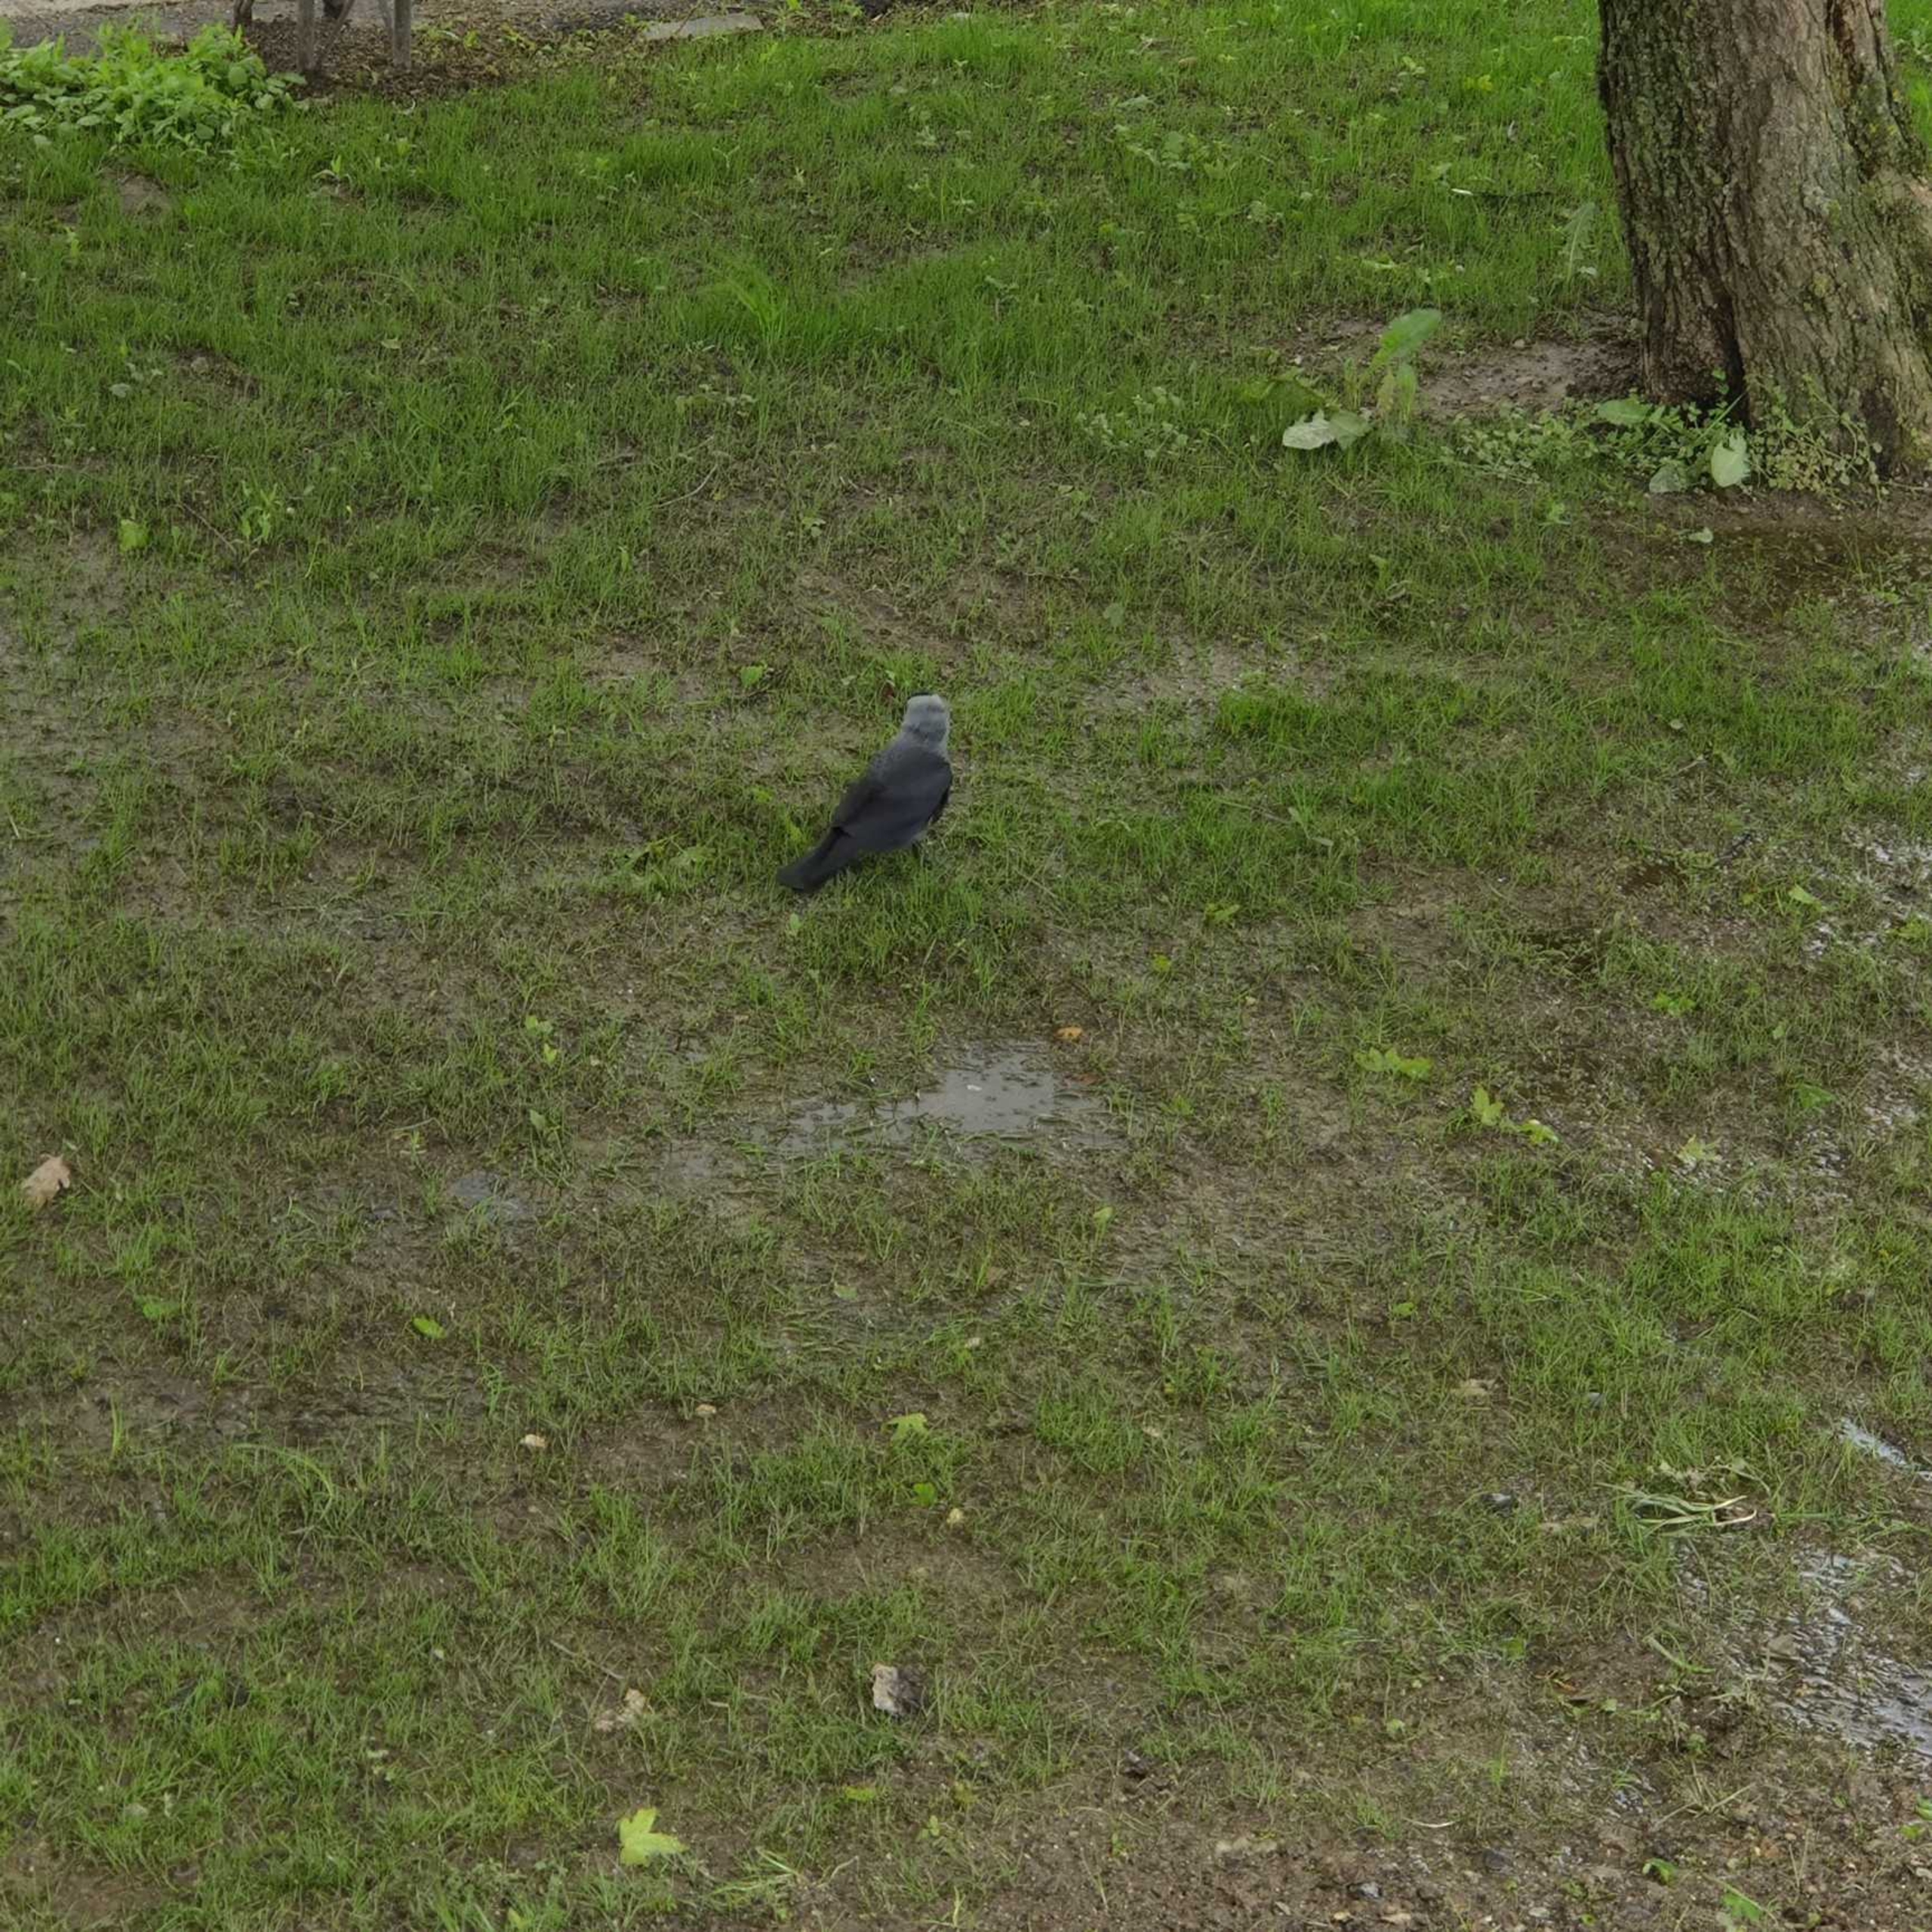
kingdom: Animalia
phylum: Chordata
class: Aves
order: Passeriformes
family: Corvidae
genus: Coloeus
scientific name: Coloeus monedula
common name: Allike
